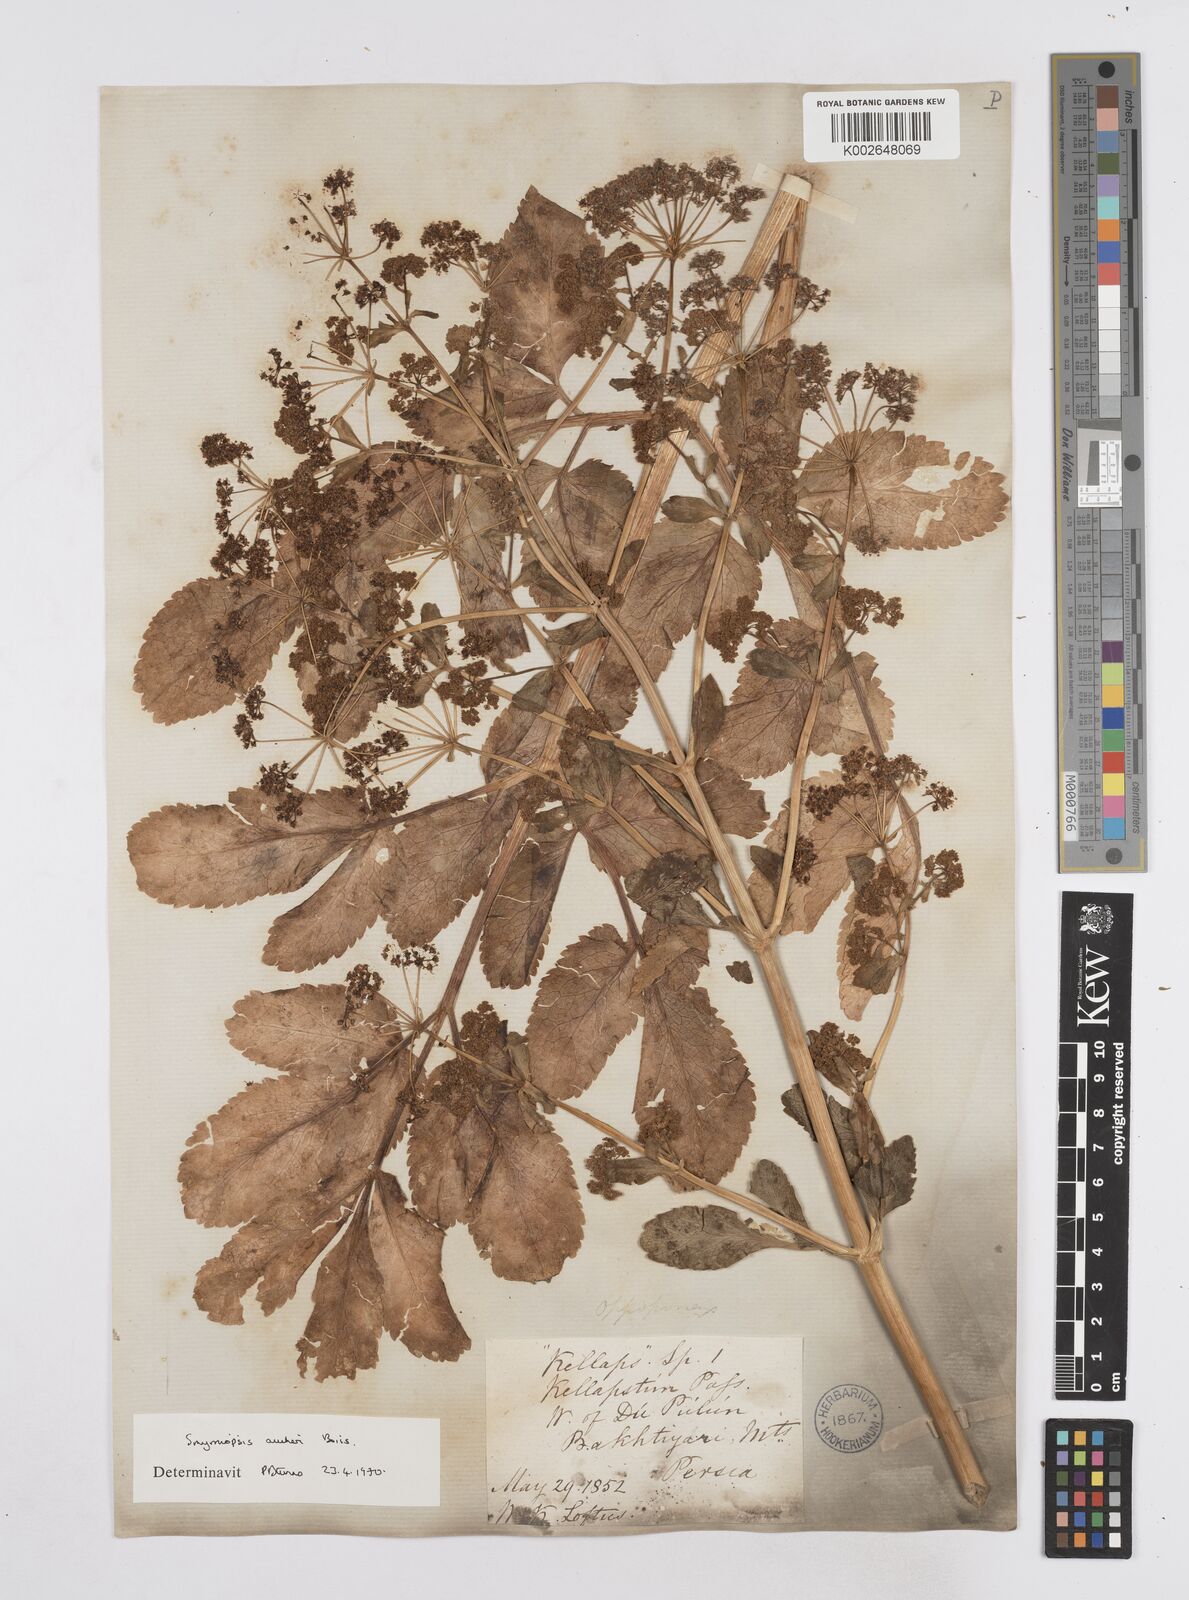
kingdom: Plantae
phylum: Tracheophyta
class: Magnoliopsida
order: Apiales
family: Apiaceae
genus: Smyrniopsis
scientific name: Smyrniopsis aucheri
